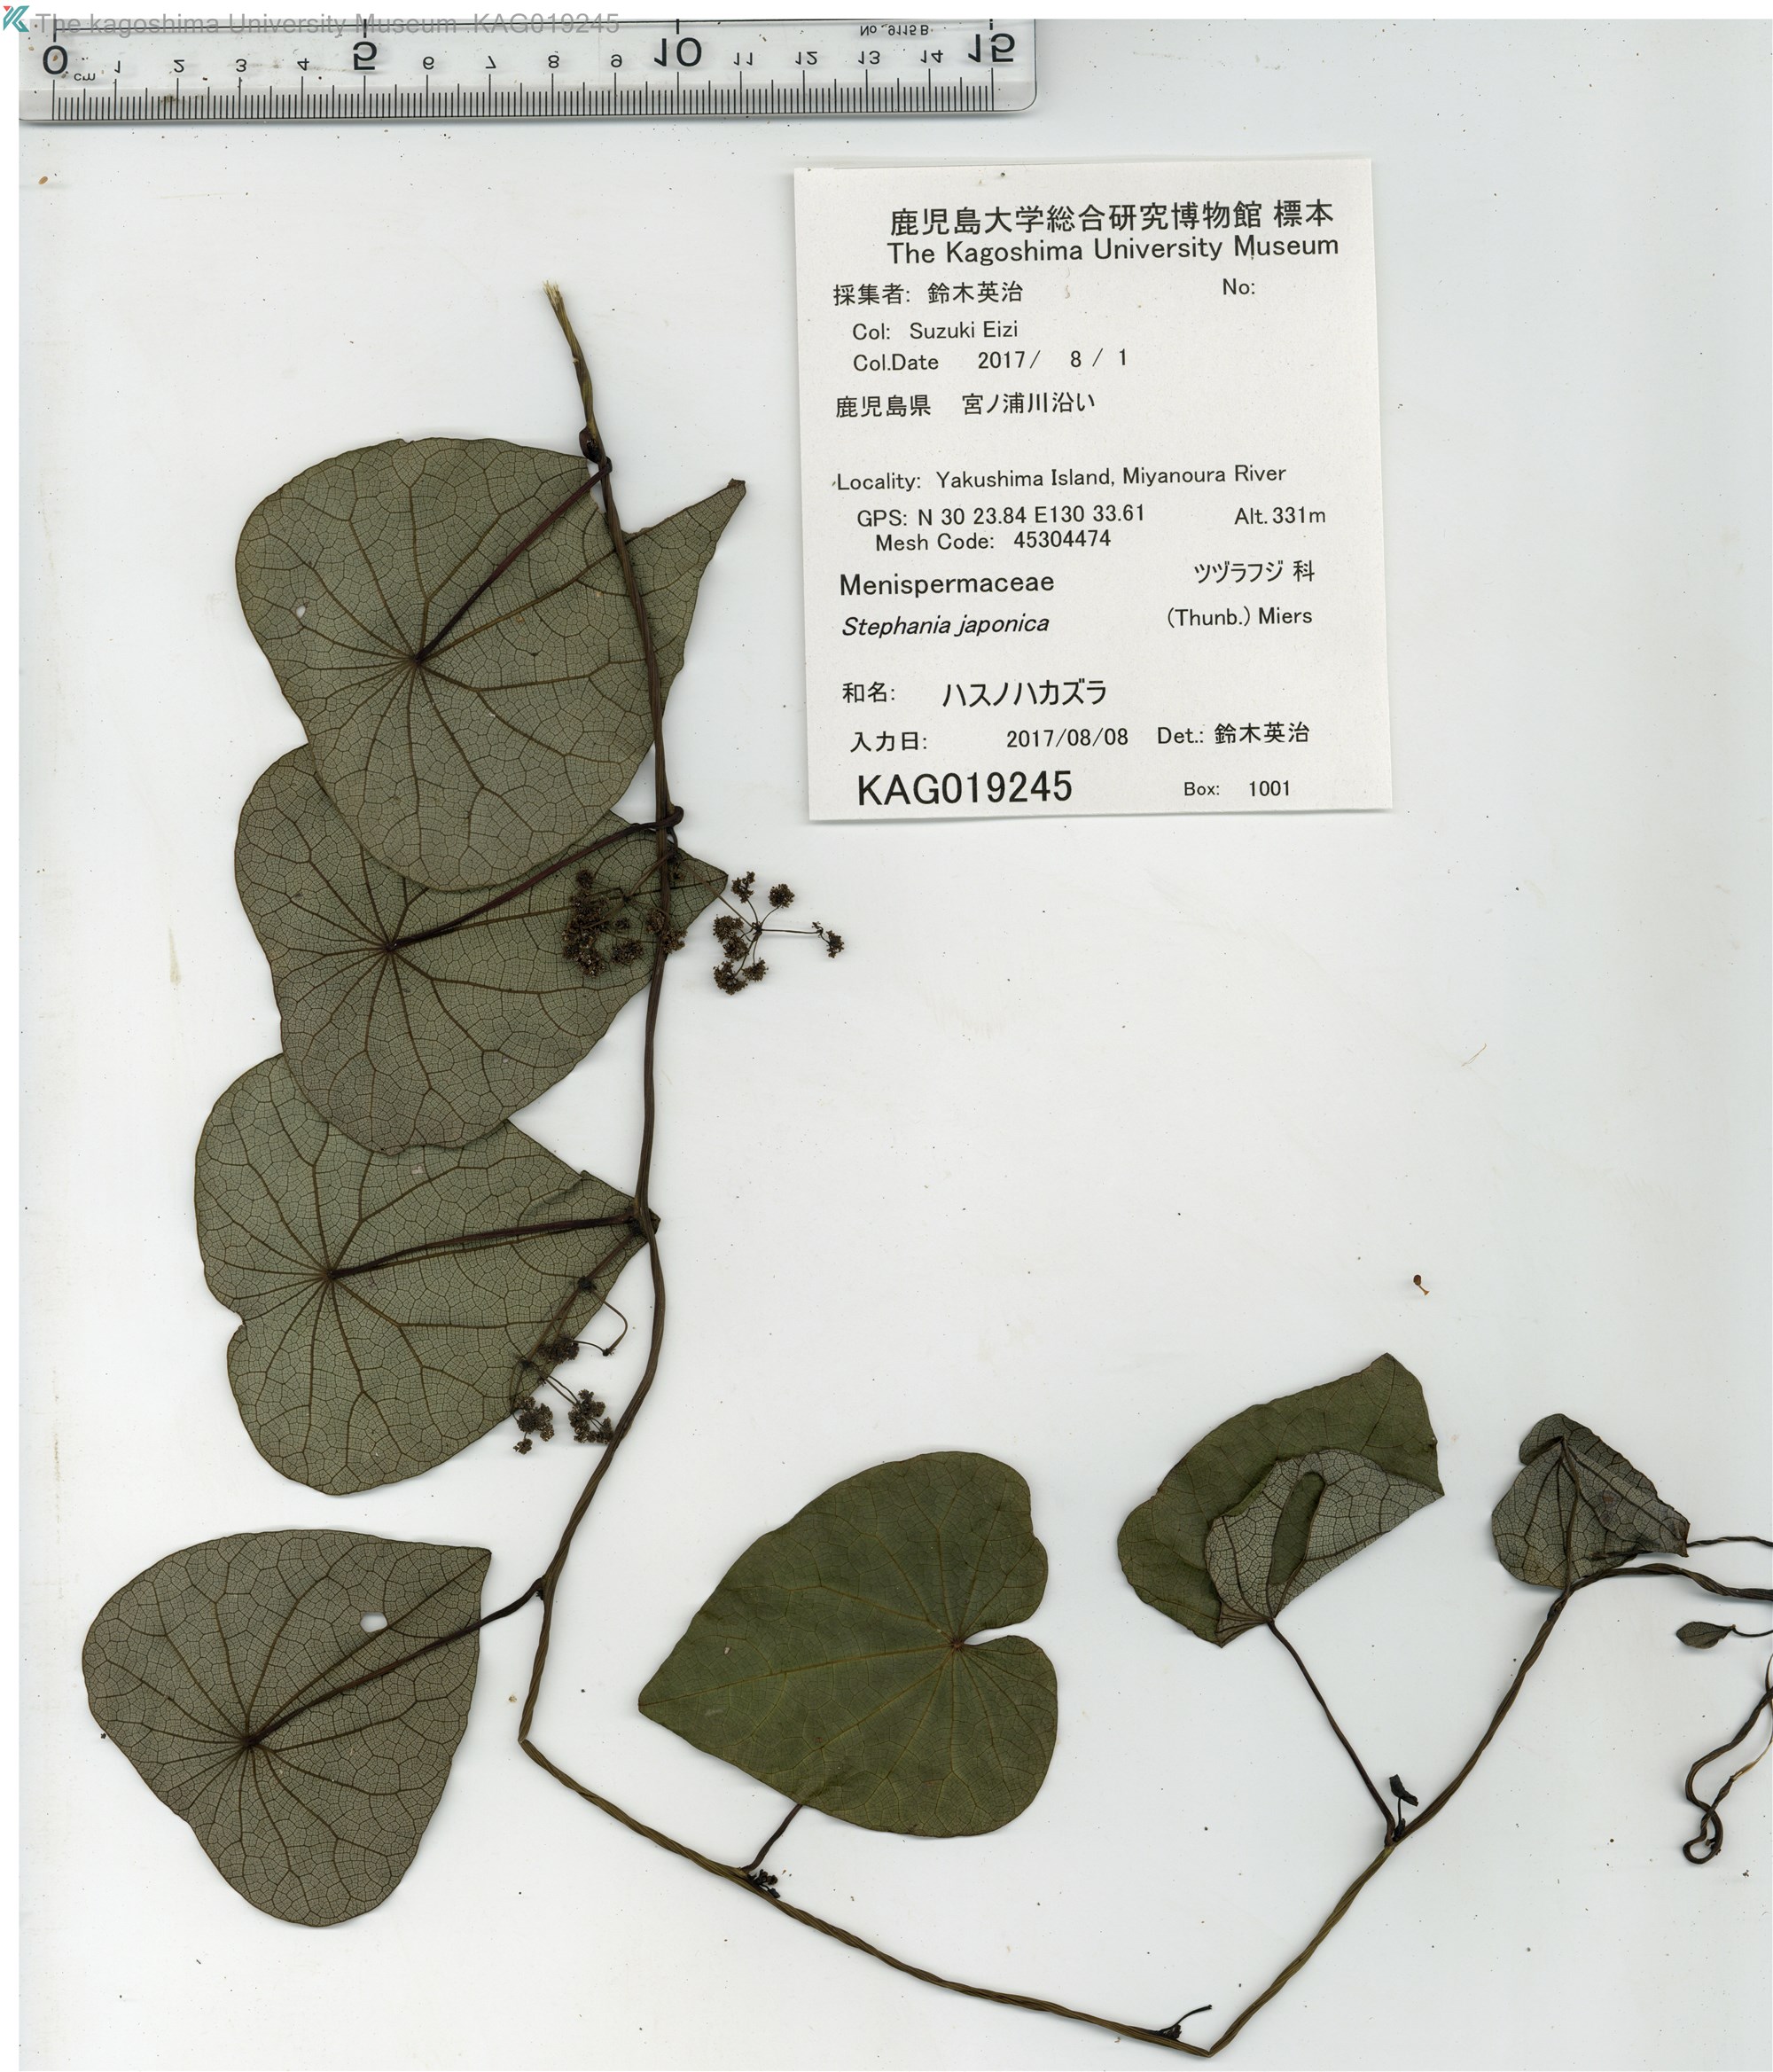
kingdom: Plantae
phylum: Tracheophyta
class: Magnoliopsida
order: Ranunculales
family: Menispermaceae
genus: Stephania
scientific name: Stephania japonica
